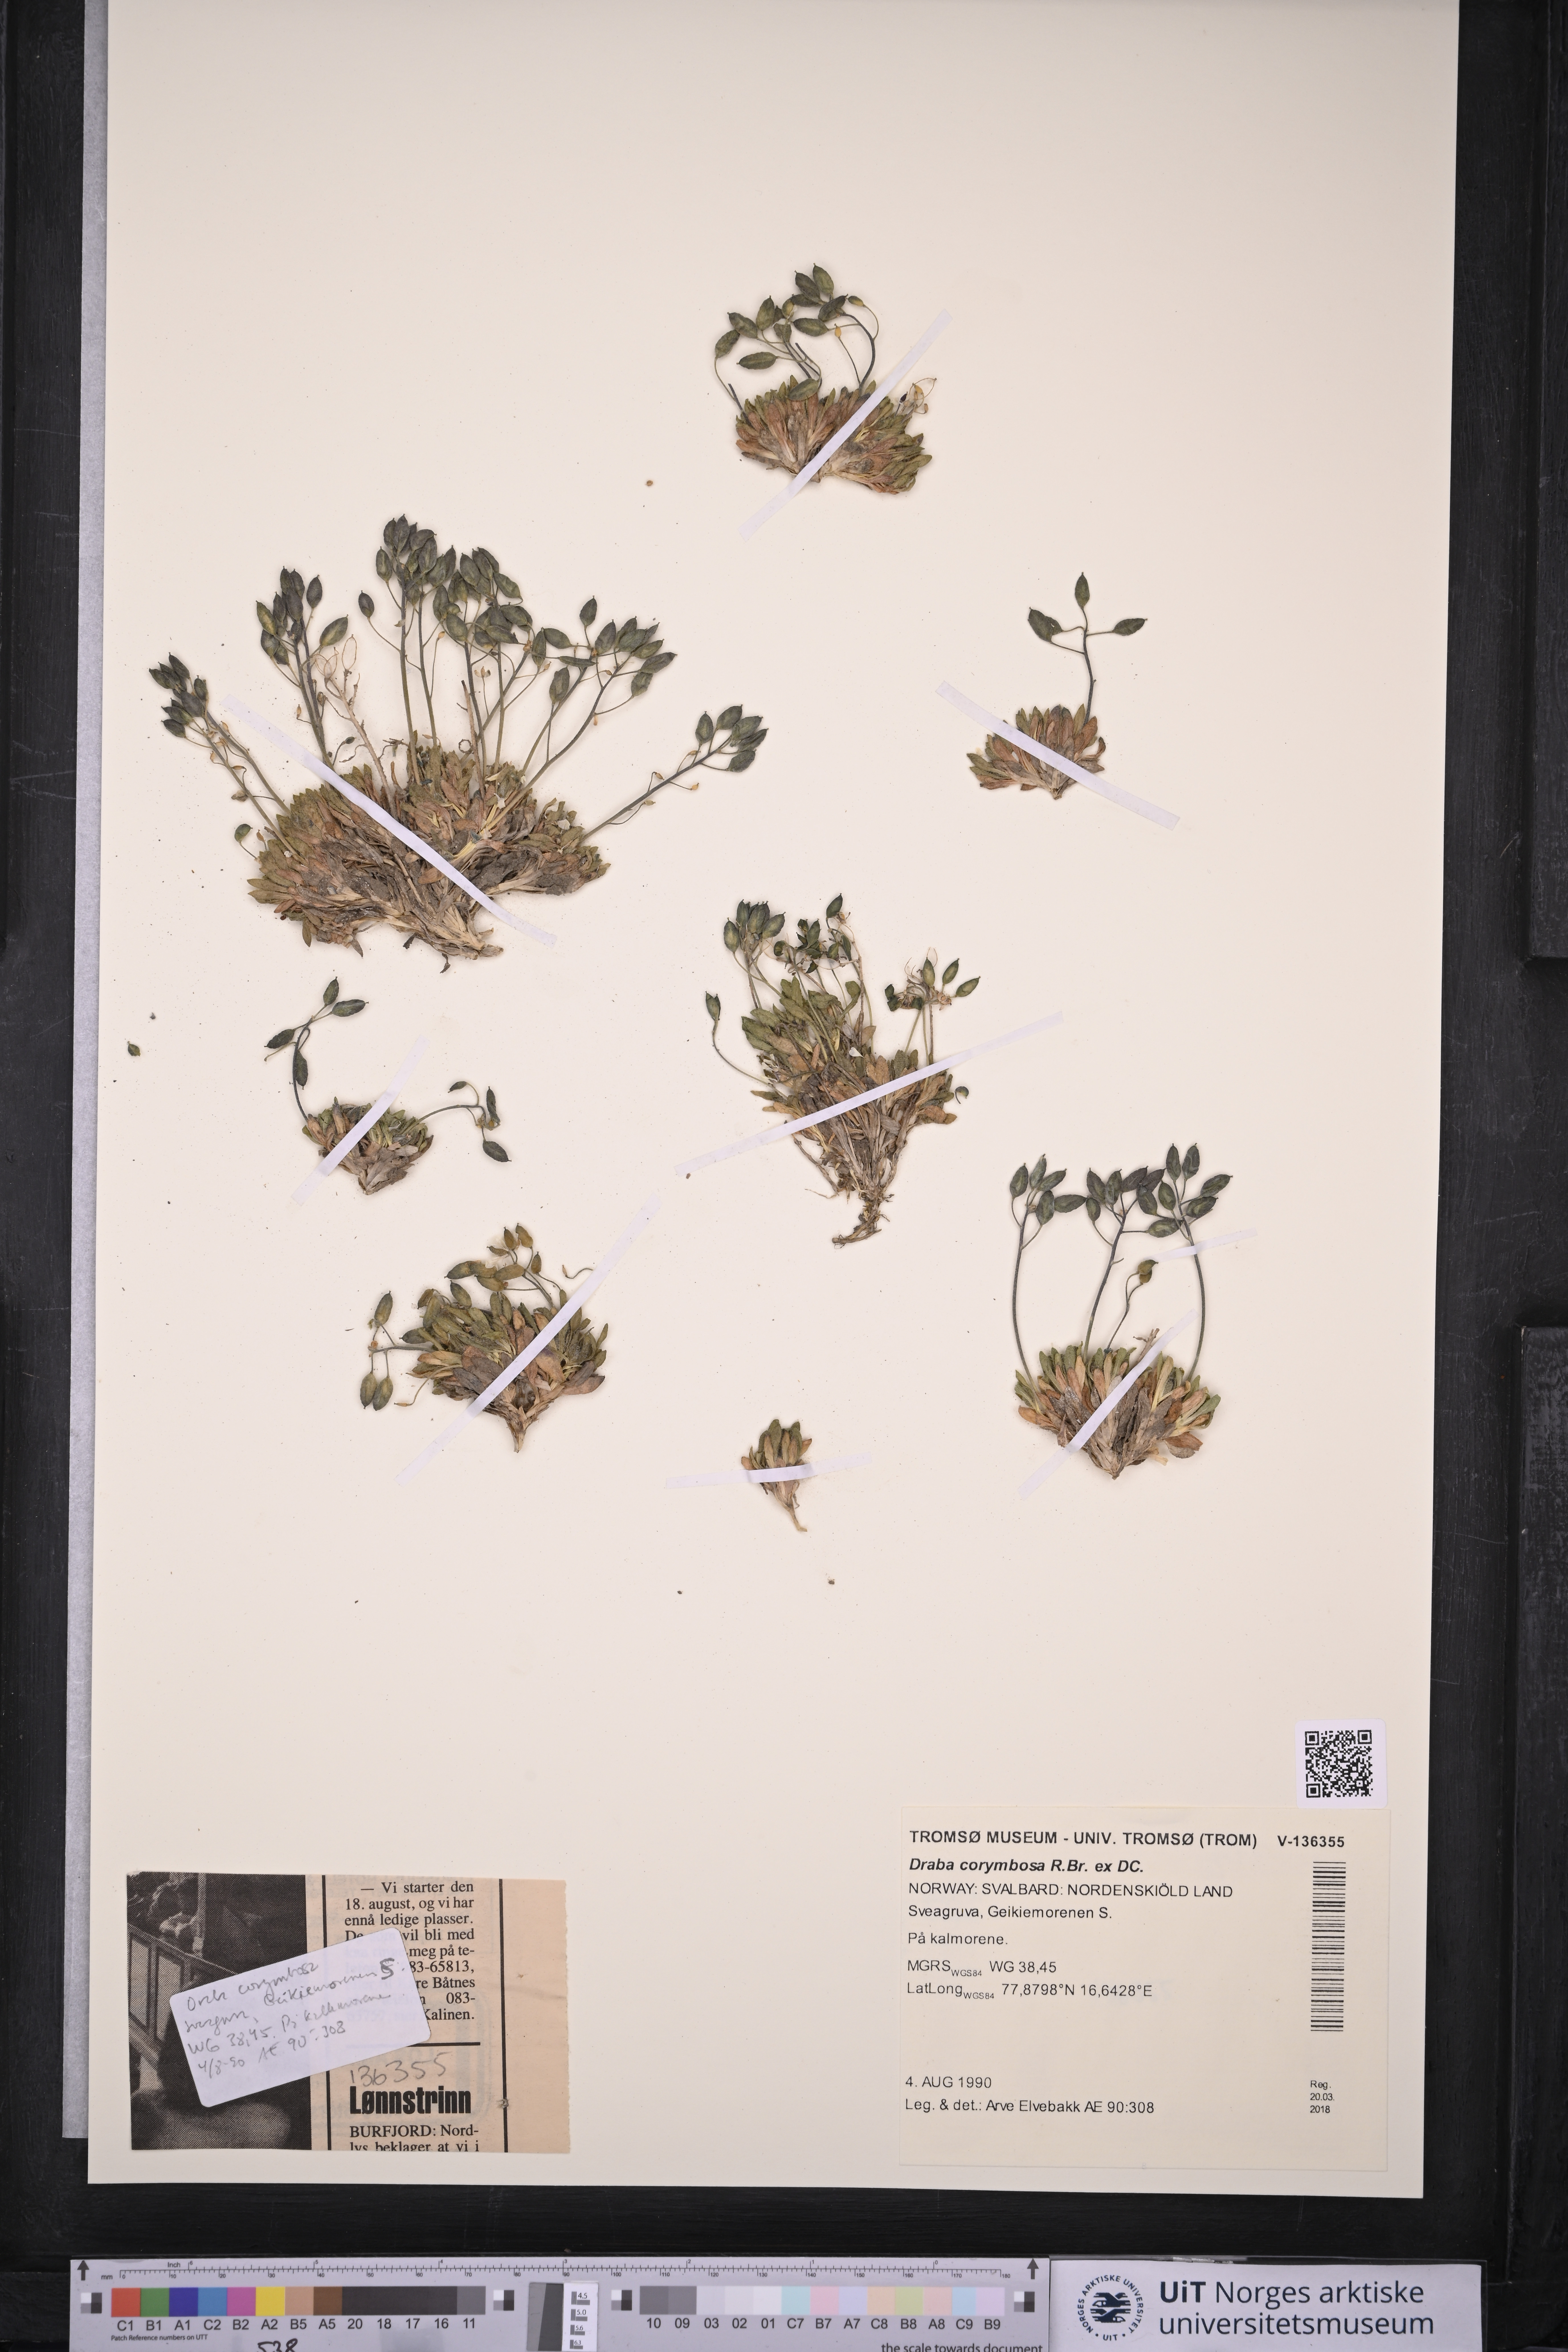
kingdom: Plantae
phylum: Tracheophyta
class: Magnoliopsida
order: Brassicales
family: Brassicaceae
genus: Draba
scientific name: Draba corymbosa
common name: Cushion whitlow-grass
